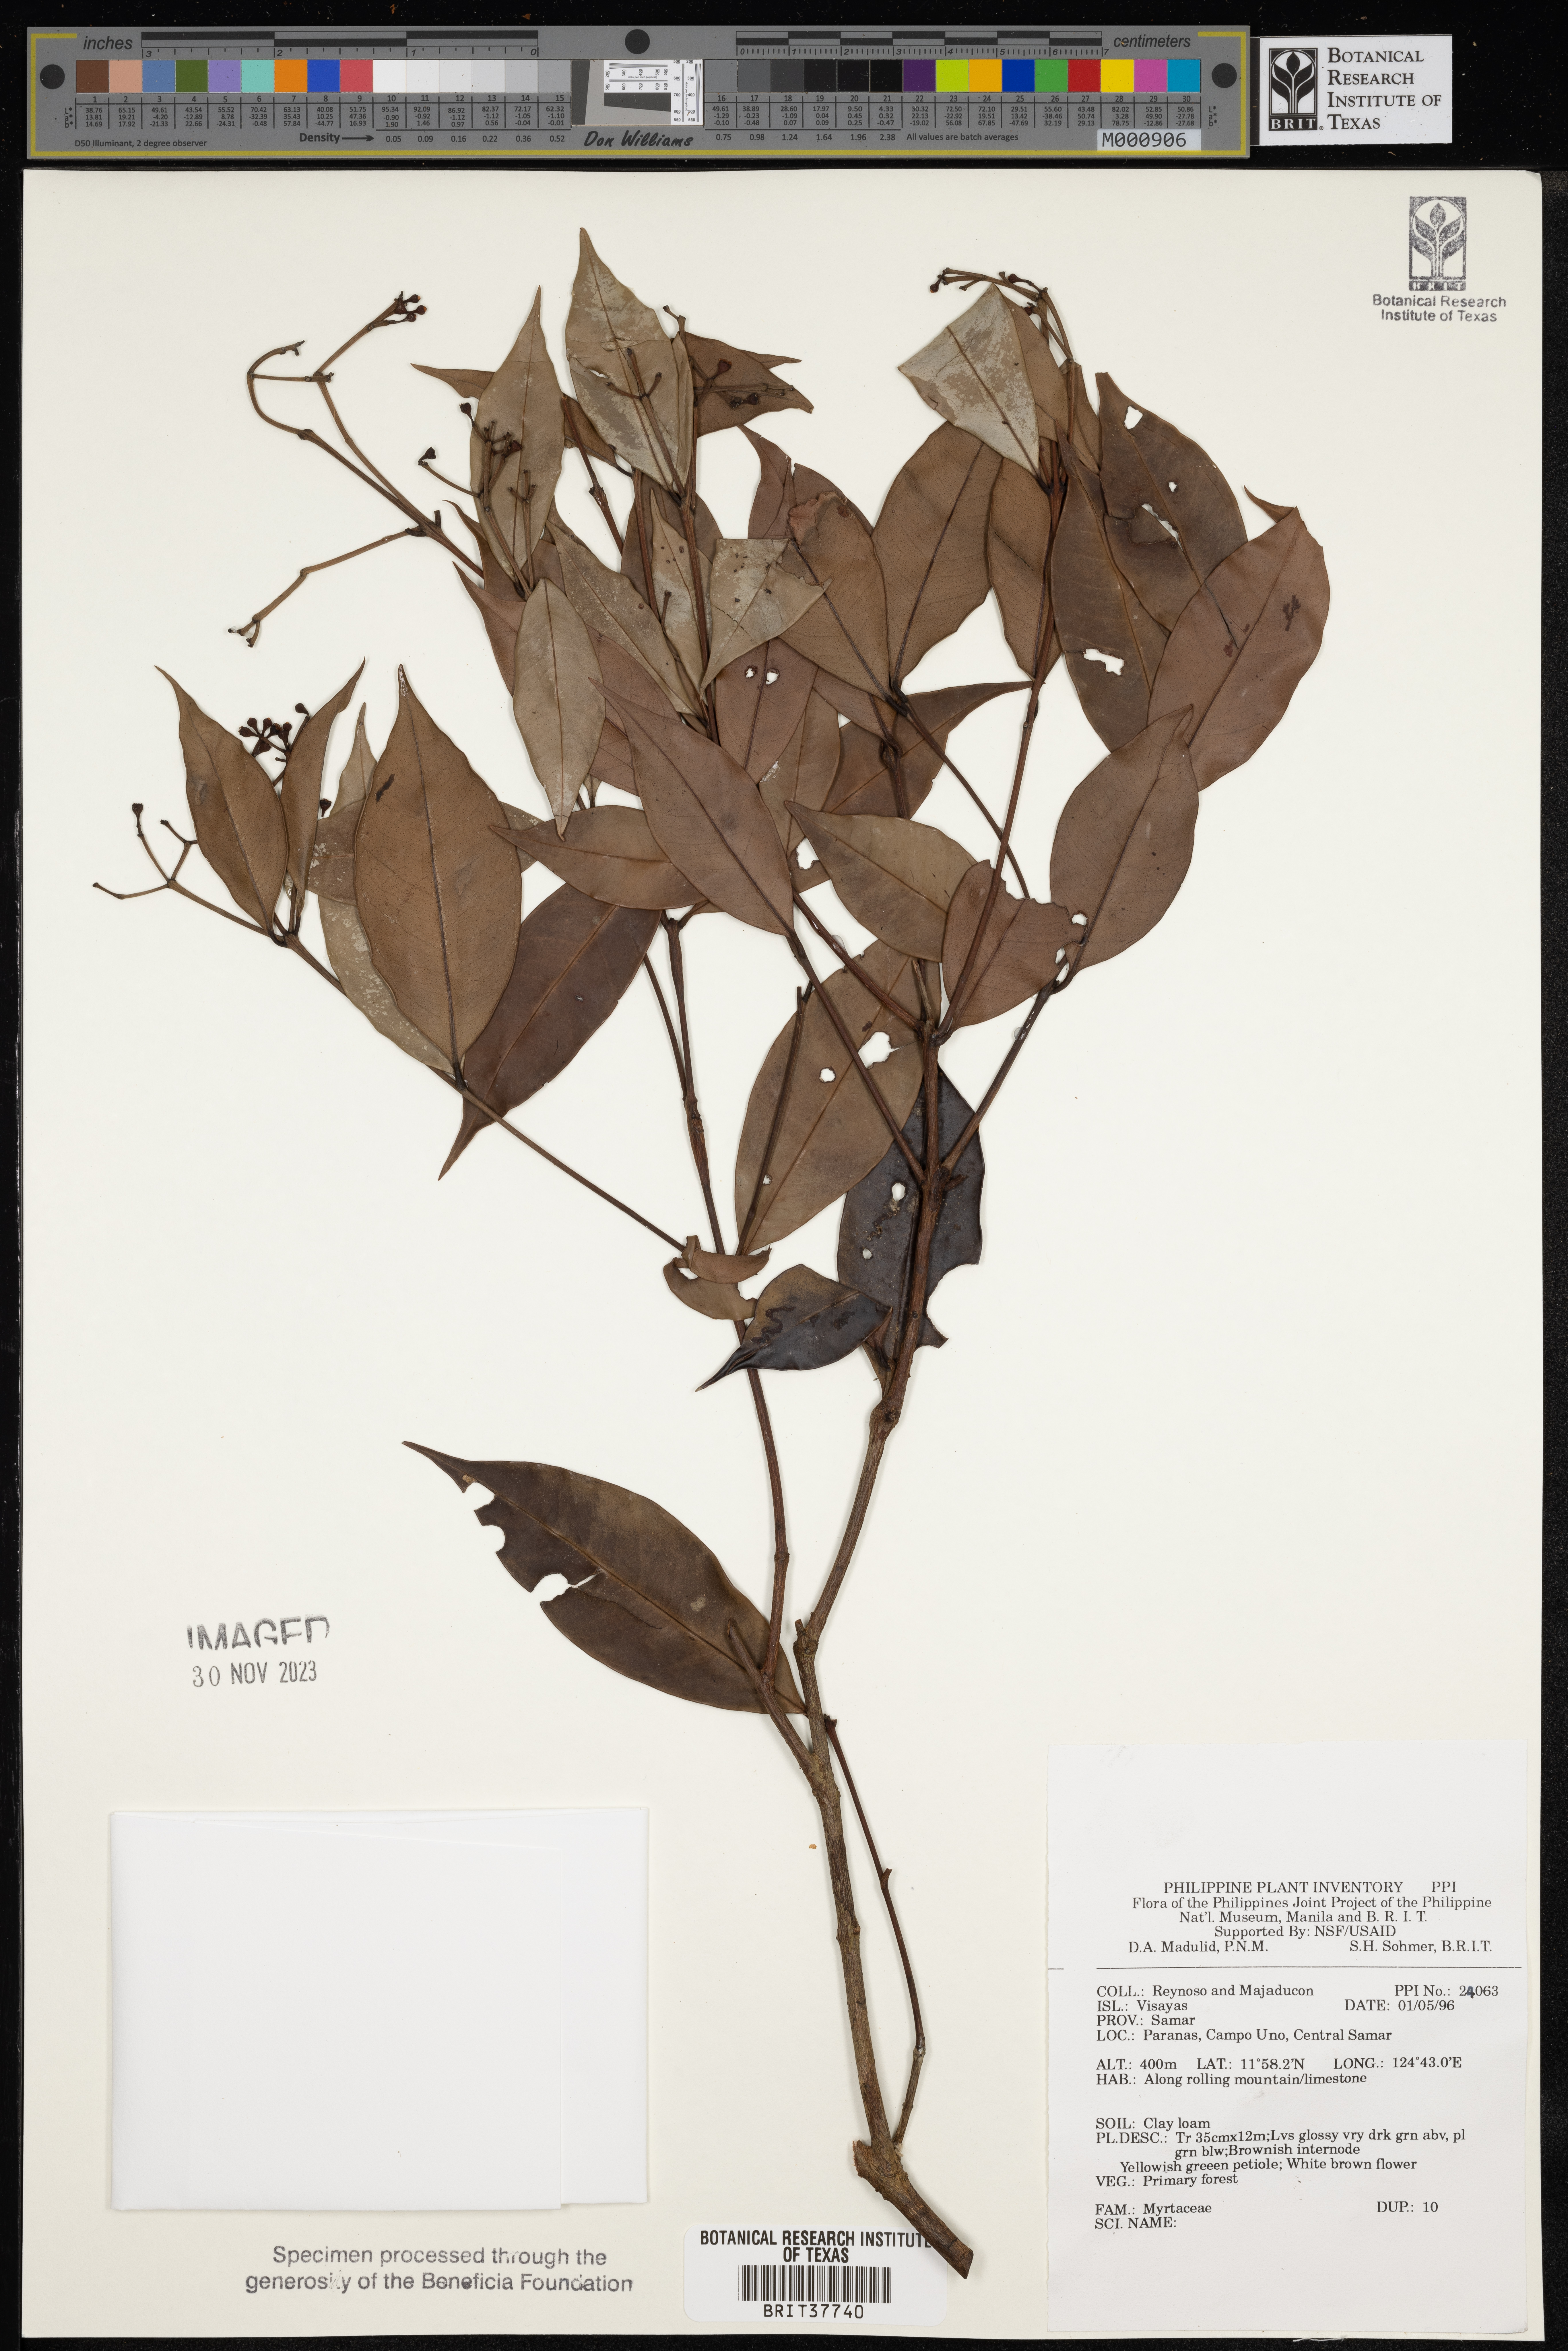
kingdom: Plantae
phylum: Tracheophyta
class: Magnoliopsida
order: Myrtales
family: Myrtaceae
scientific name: Myrtaceae
